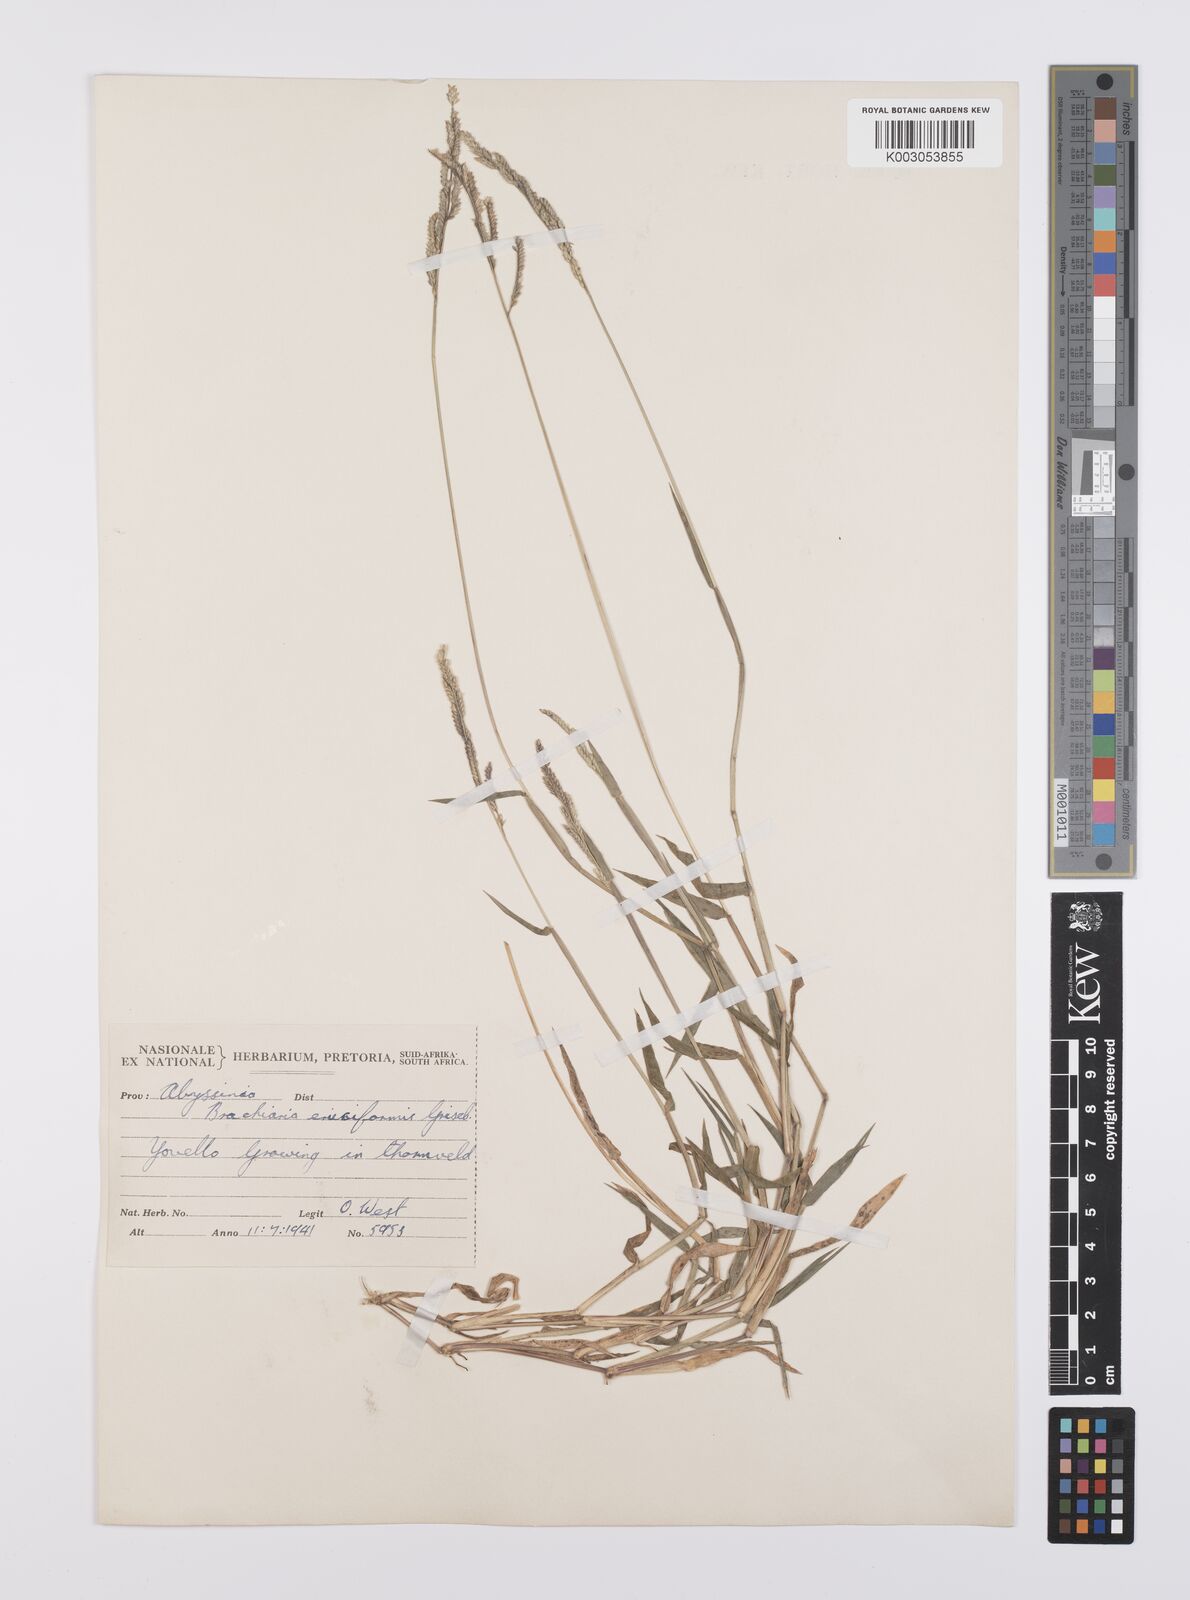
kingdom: Plantae
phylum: Tracheophyta
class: Liliopsida
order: Poales
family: Poaceae
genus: Moorochloa
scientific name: Moorochloa eruciformis
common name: Sweet signalgrass
